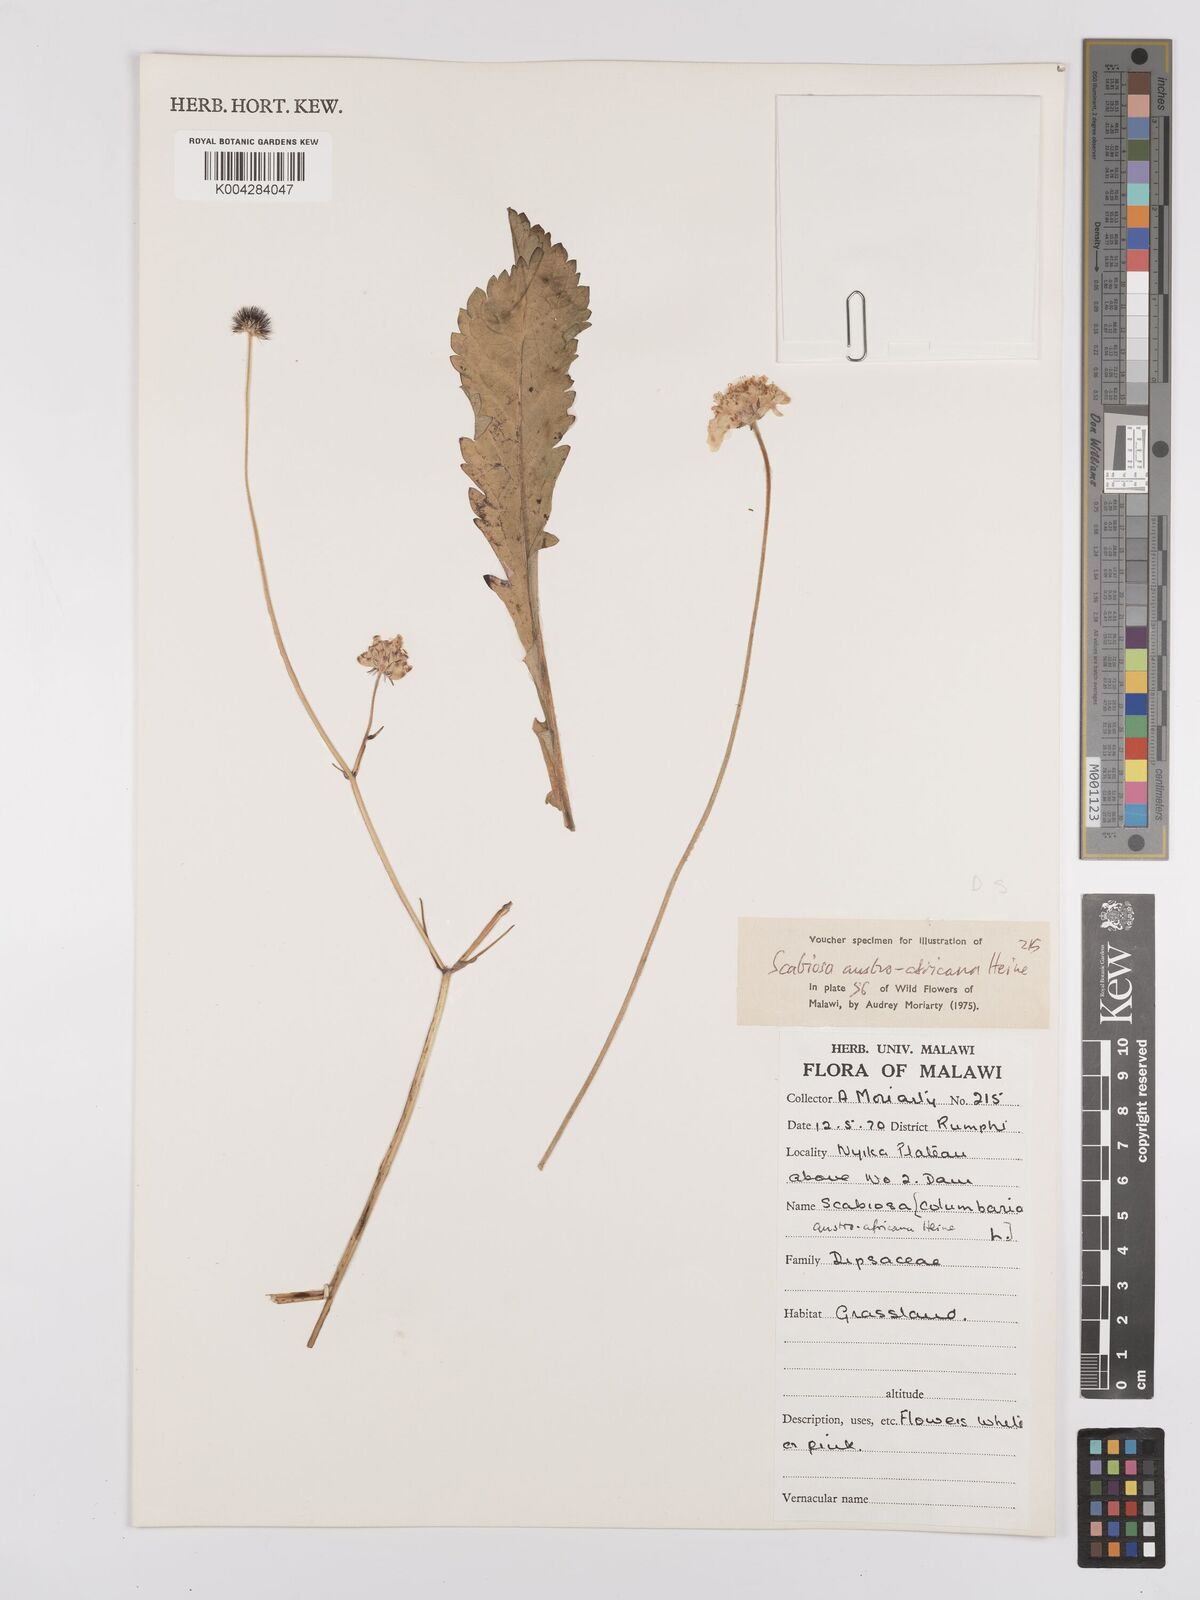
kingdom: Plantae
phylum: Tracheophyta
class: Magnoliopsida
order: Dipsacales
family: Caprifoliaceae
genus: Scabiosa
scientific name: Scabiosa austroafricana
